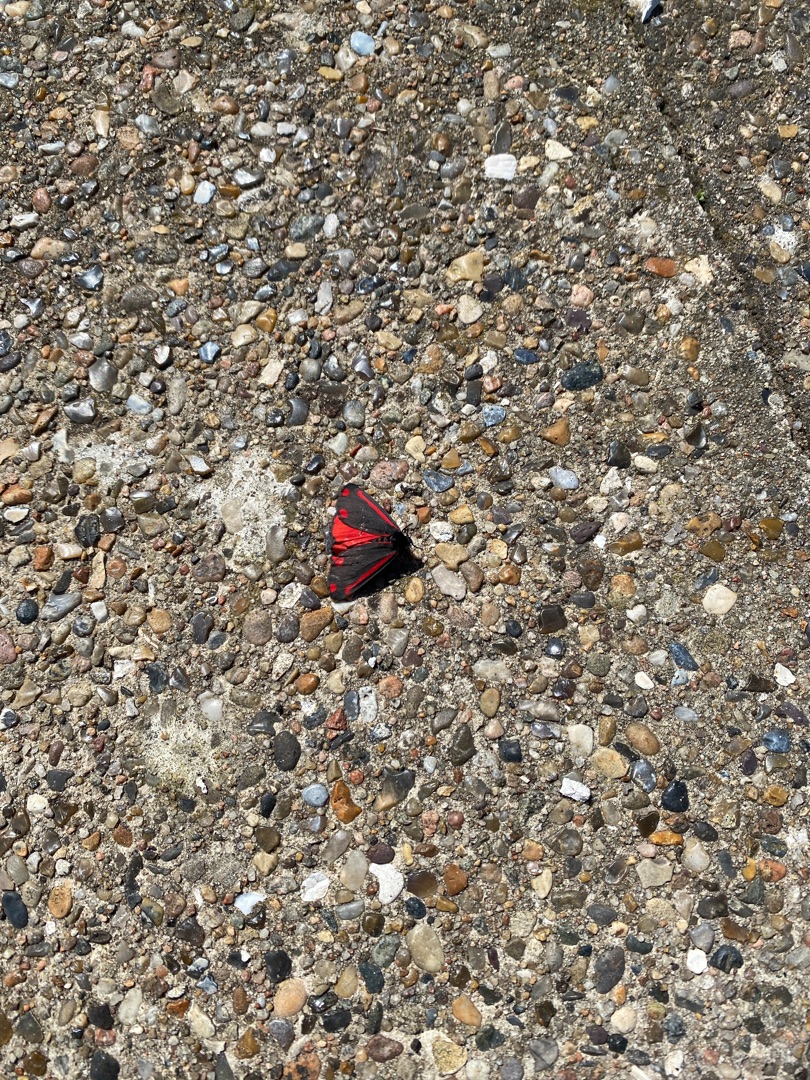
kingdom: Animalia
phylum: Arthropoda
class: Insecta
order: Lepidoptera
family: Erebidae
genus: Tyria
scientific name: Tyria jacobaeae
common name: Blodplet
